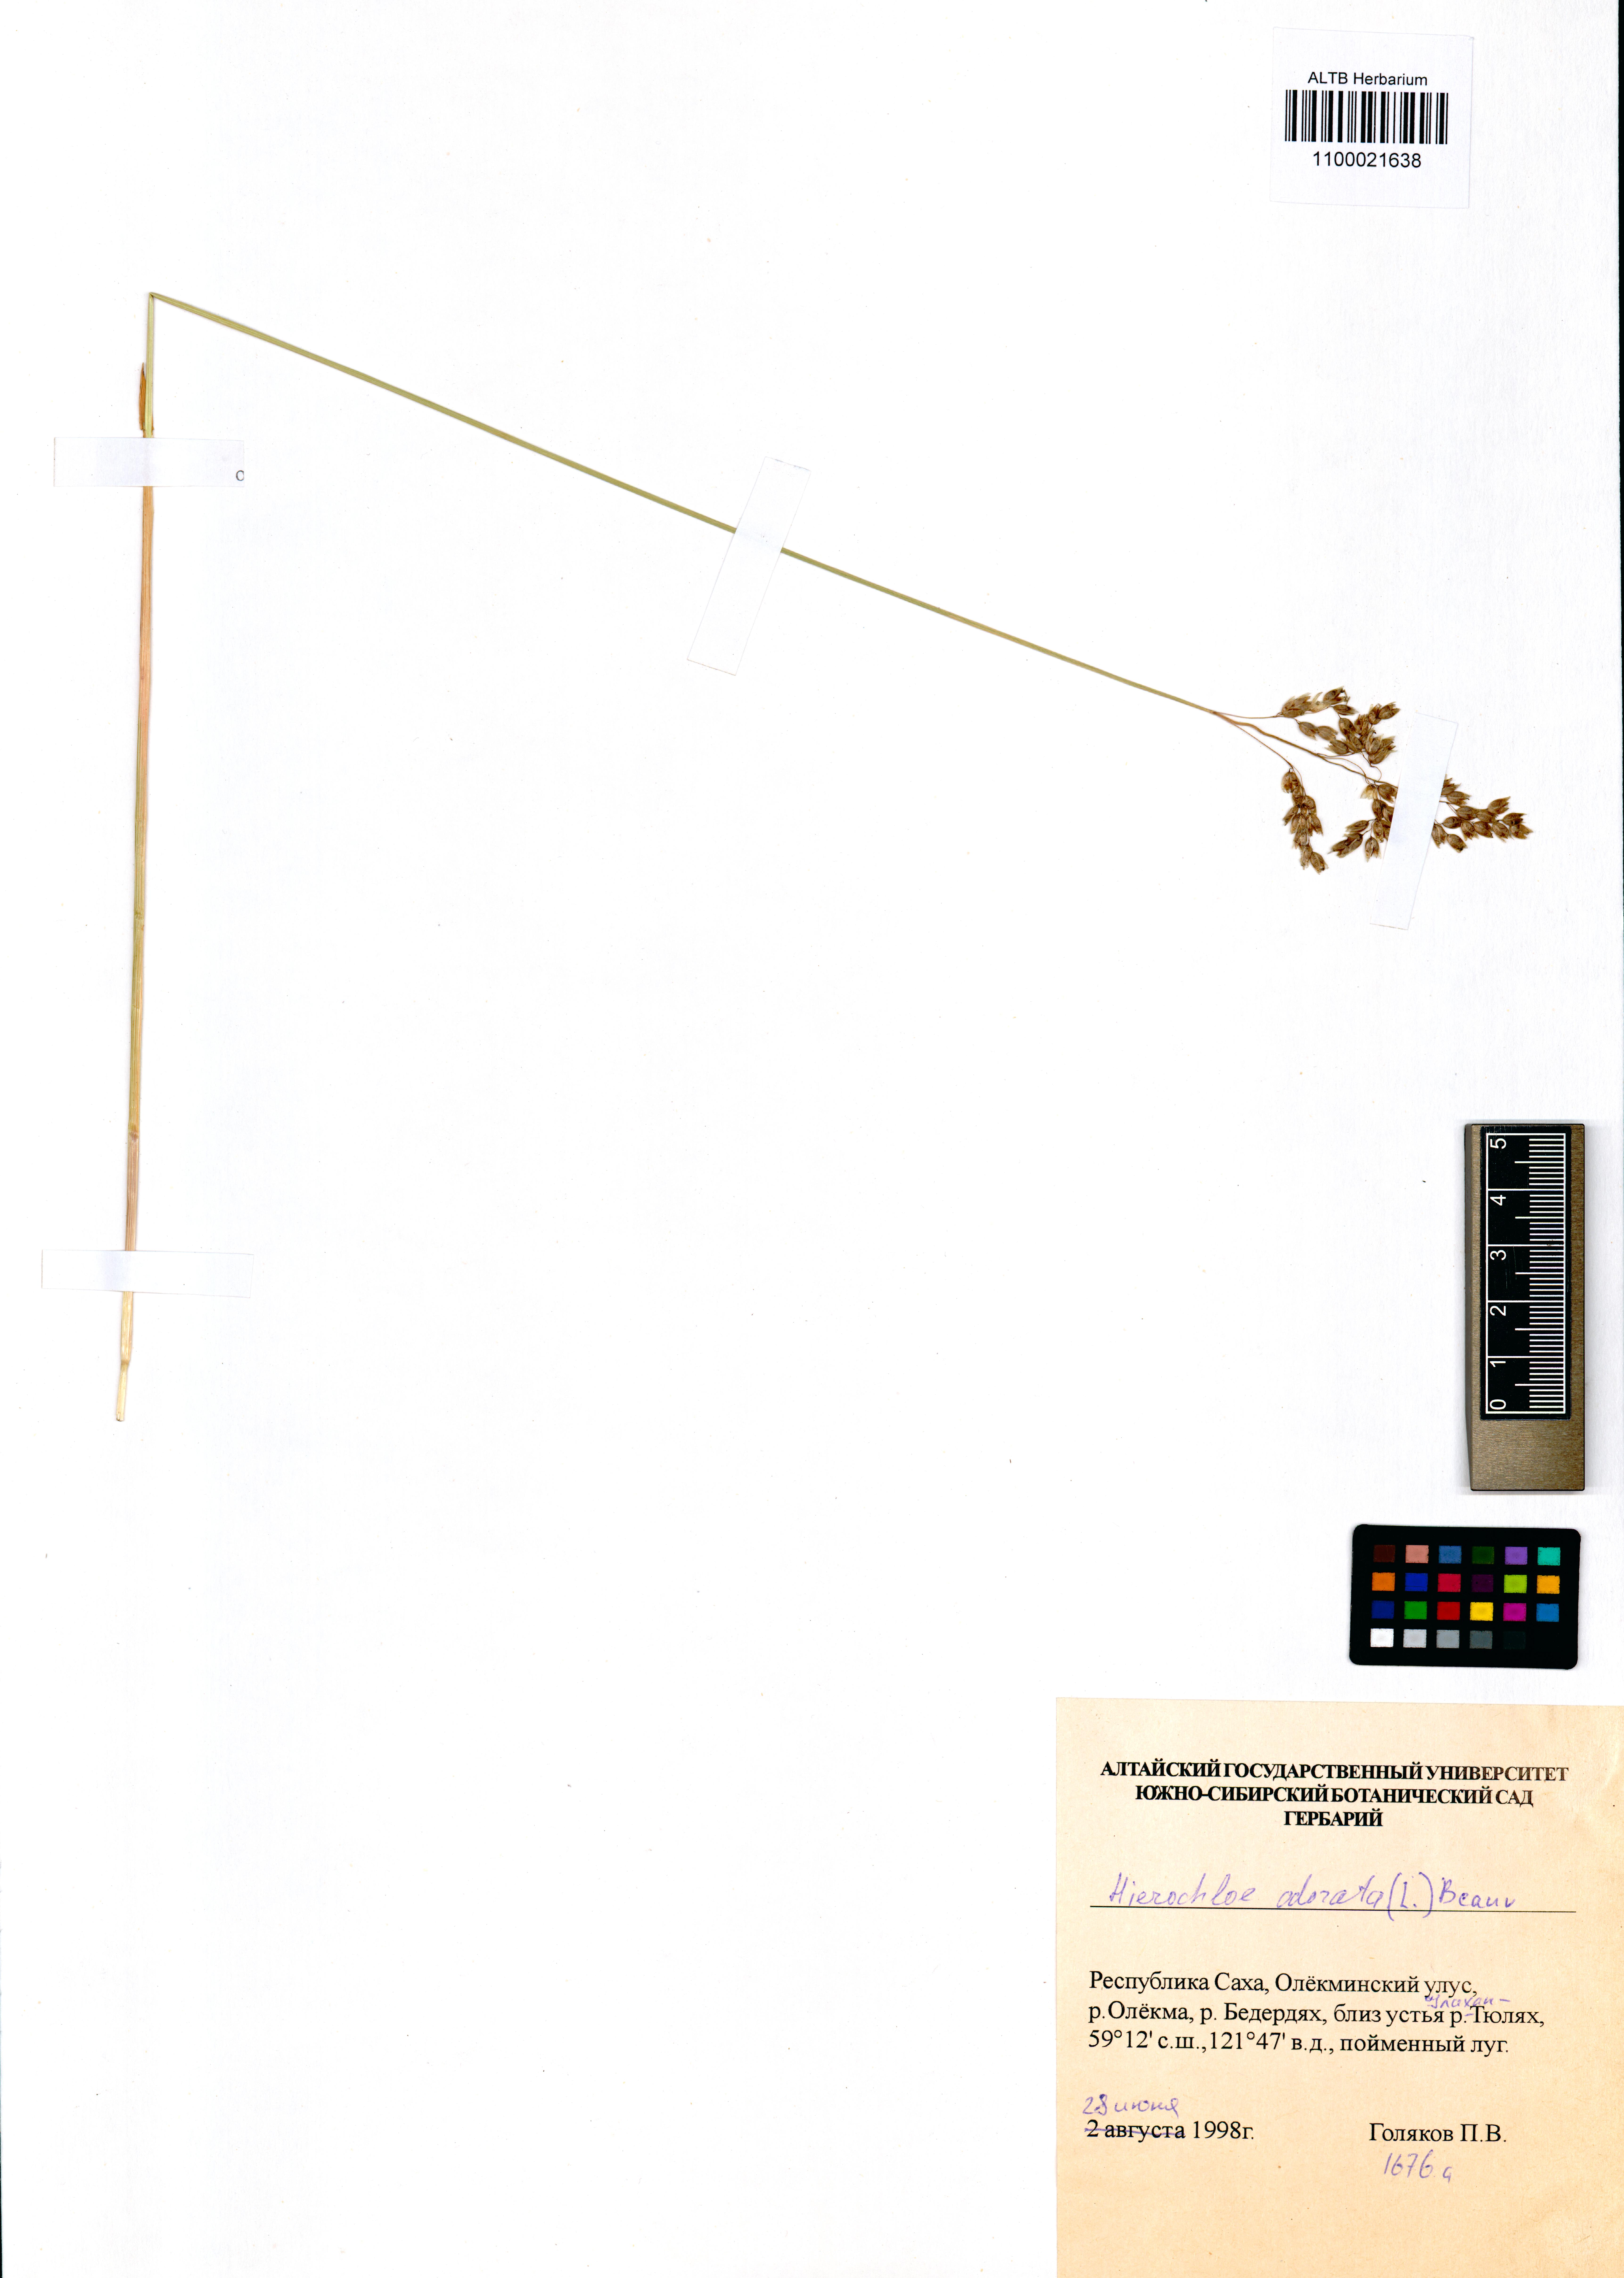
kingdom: Plantae
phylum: Tracheophyta
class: Liliopsida
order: Poales
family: Poaceae
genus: Anthoxanthum
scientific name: Anthoxanthum nitens
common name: Holy grass
